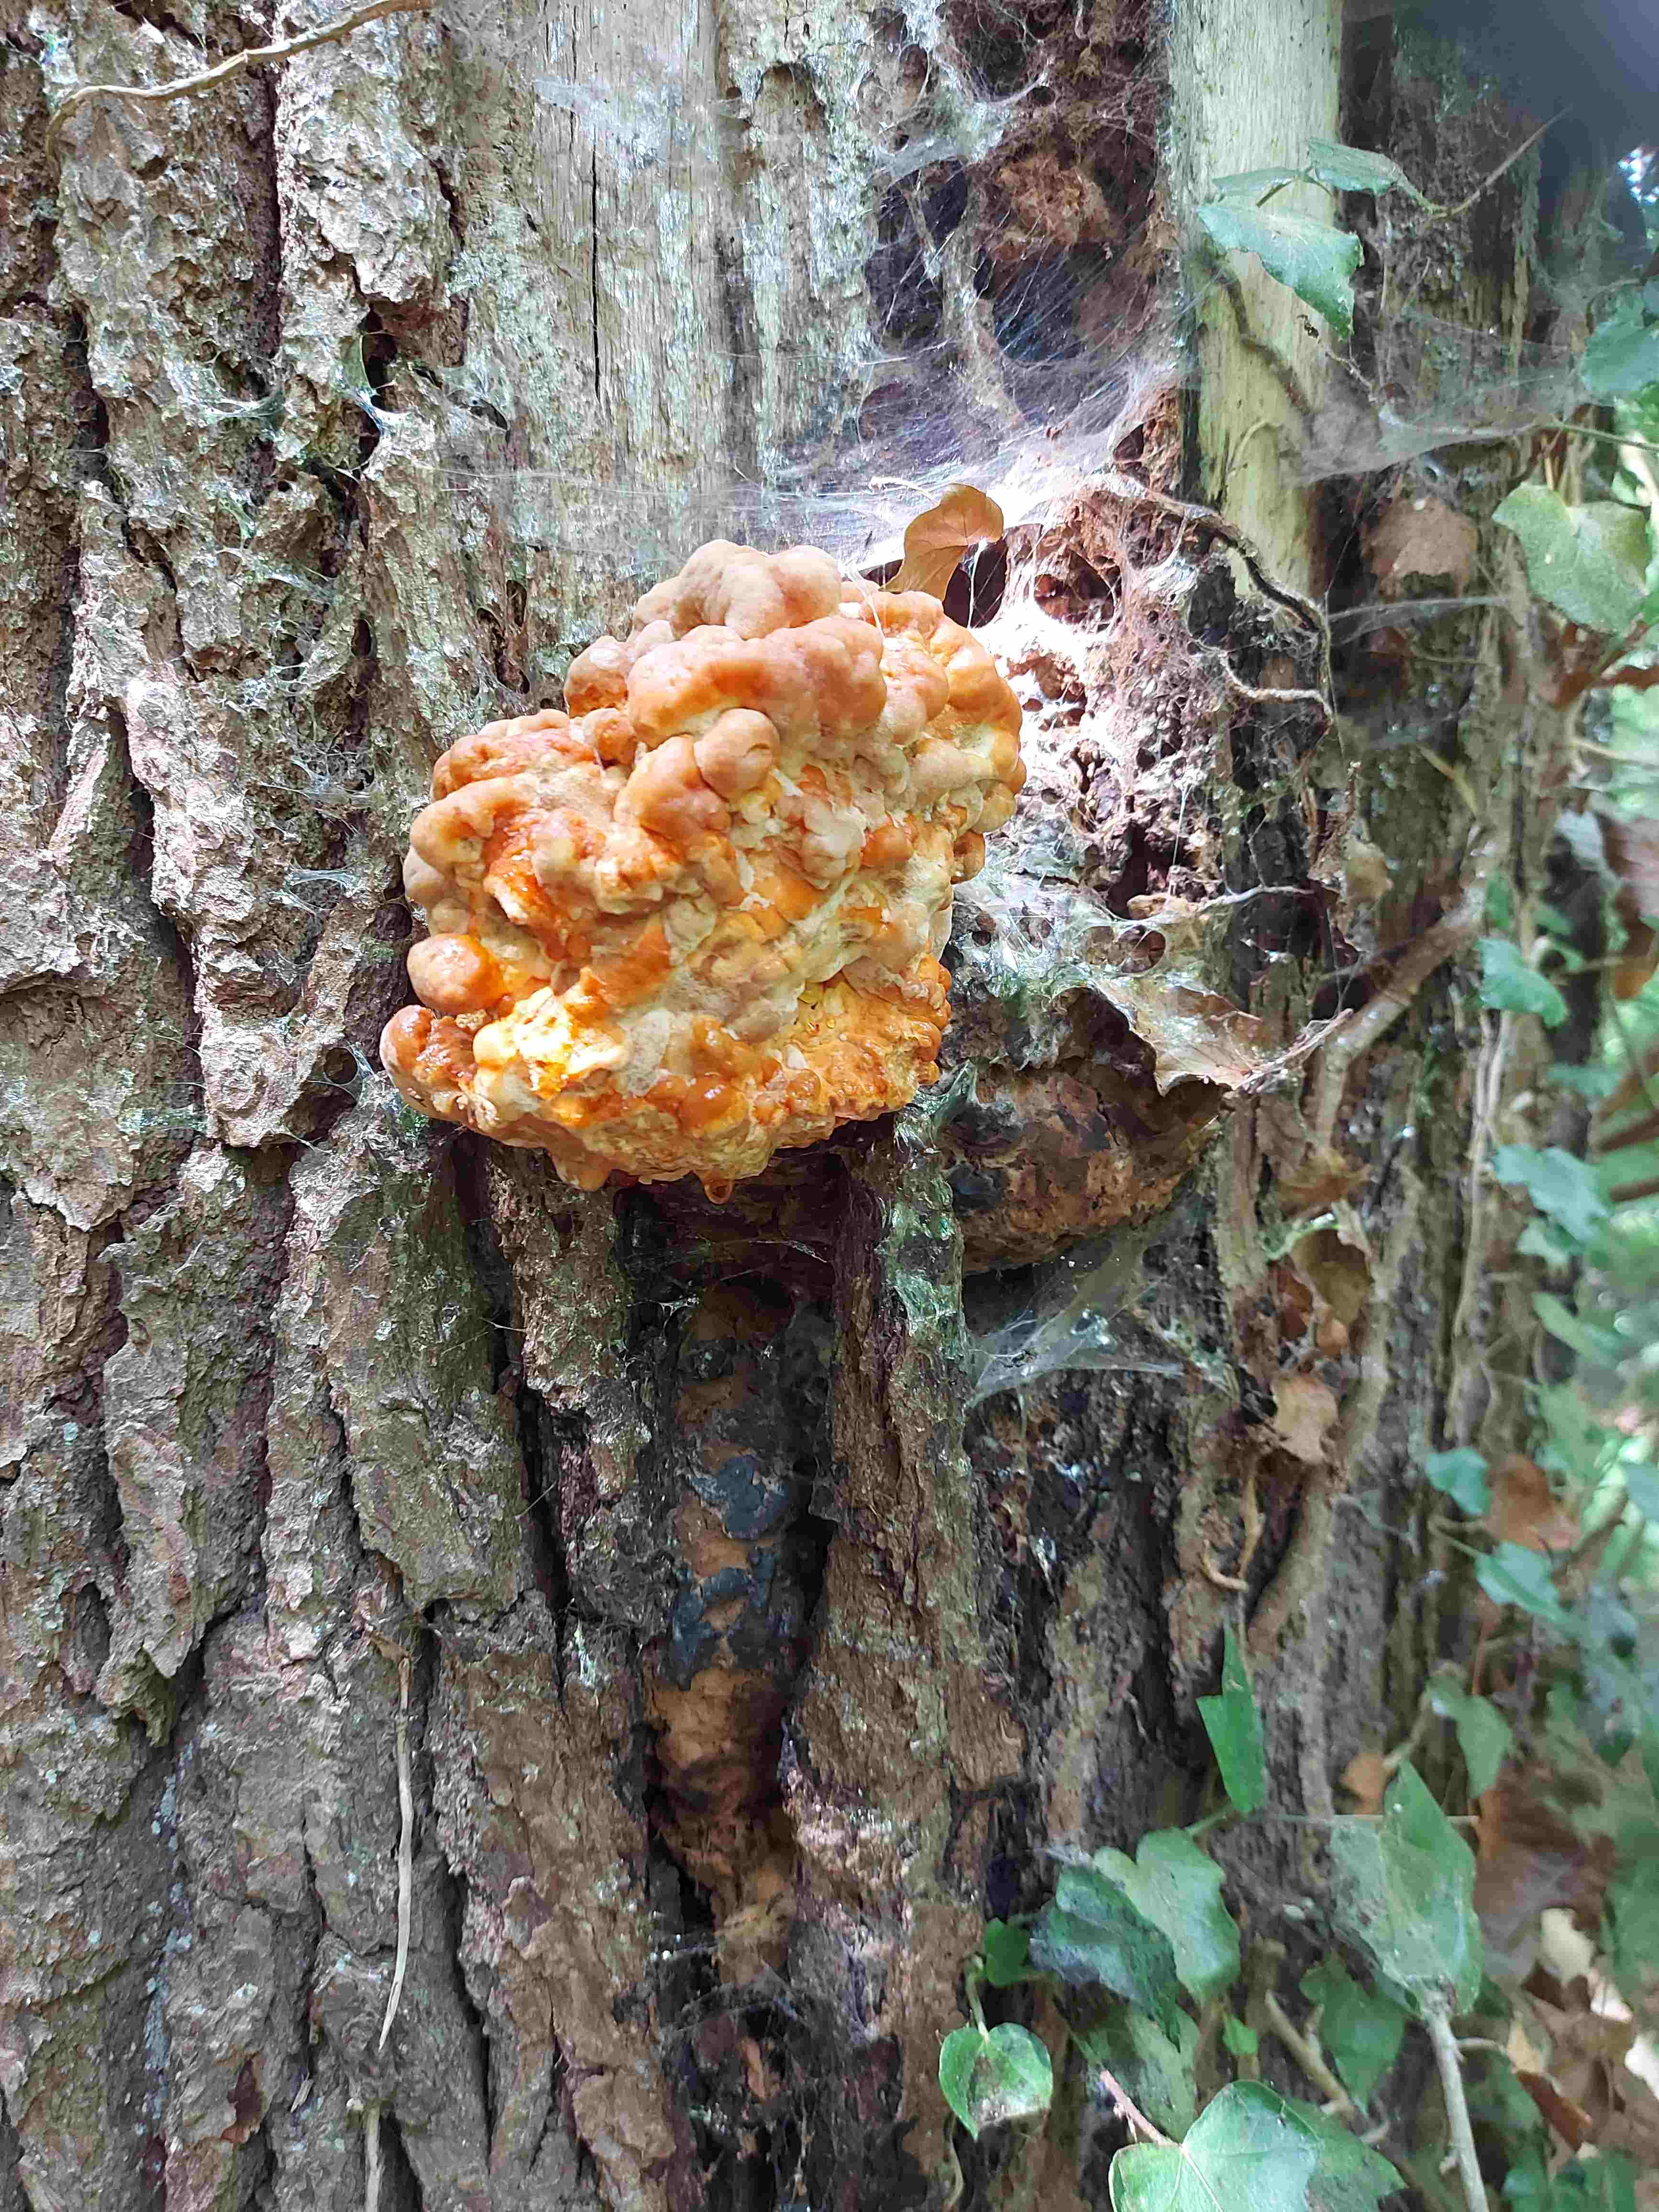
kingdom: Fungi
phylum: Basidiomycota
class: Agaricomycetes
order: Polyporales
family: Laetiporaceae
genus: Laetiporus
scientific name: Laetiporus sulphureus
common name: svovlporesvamp
